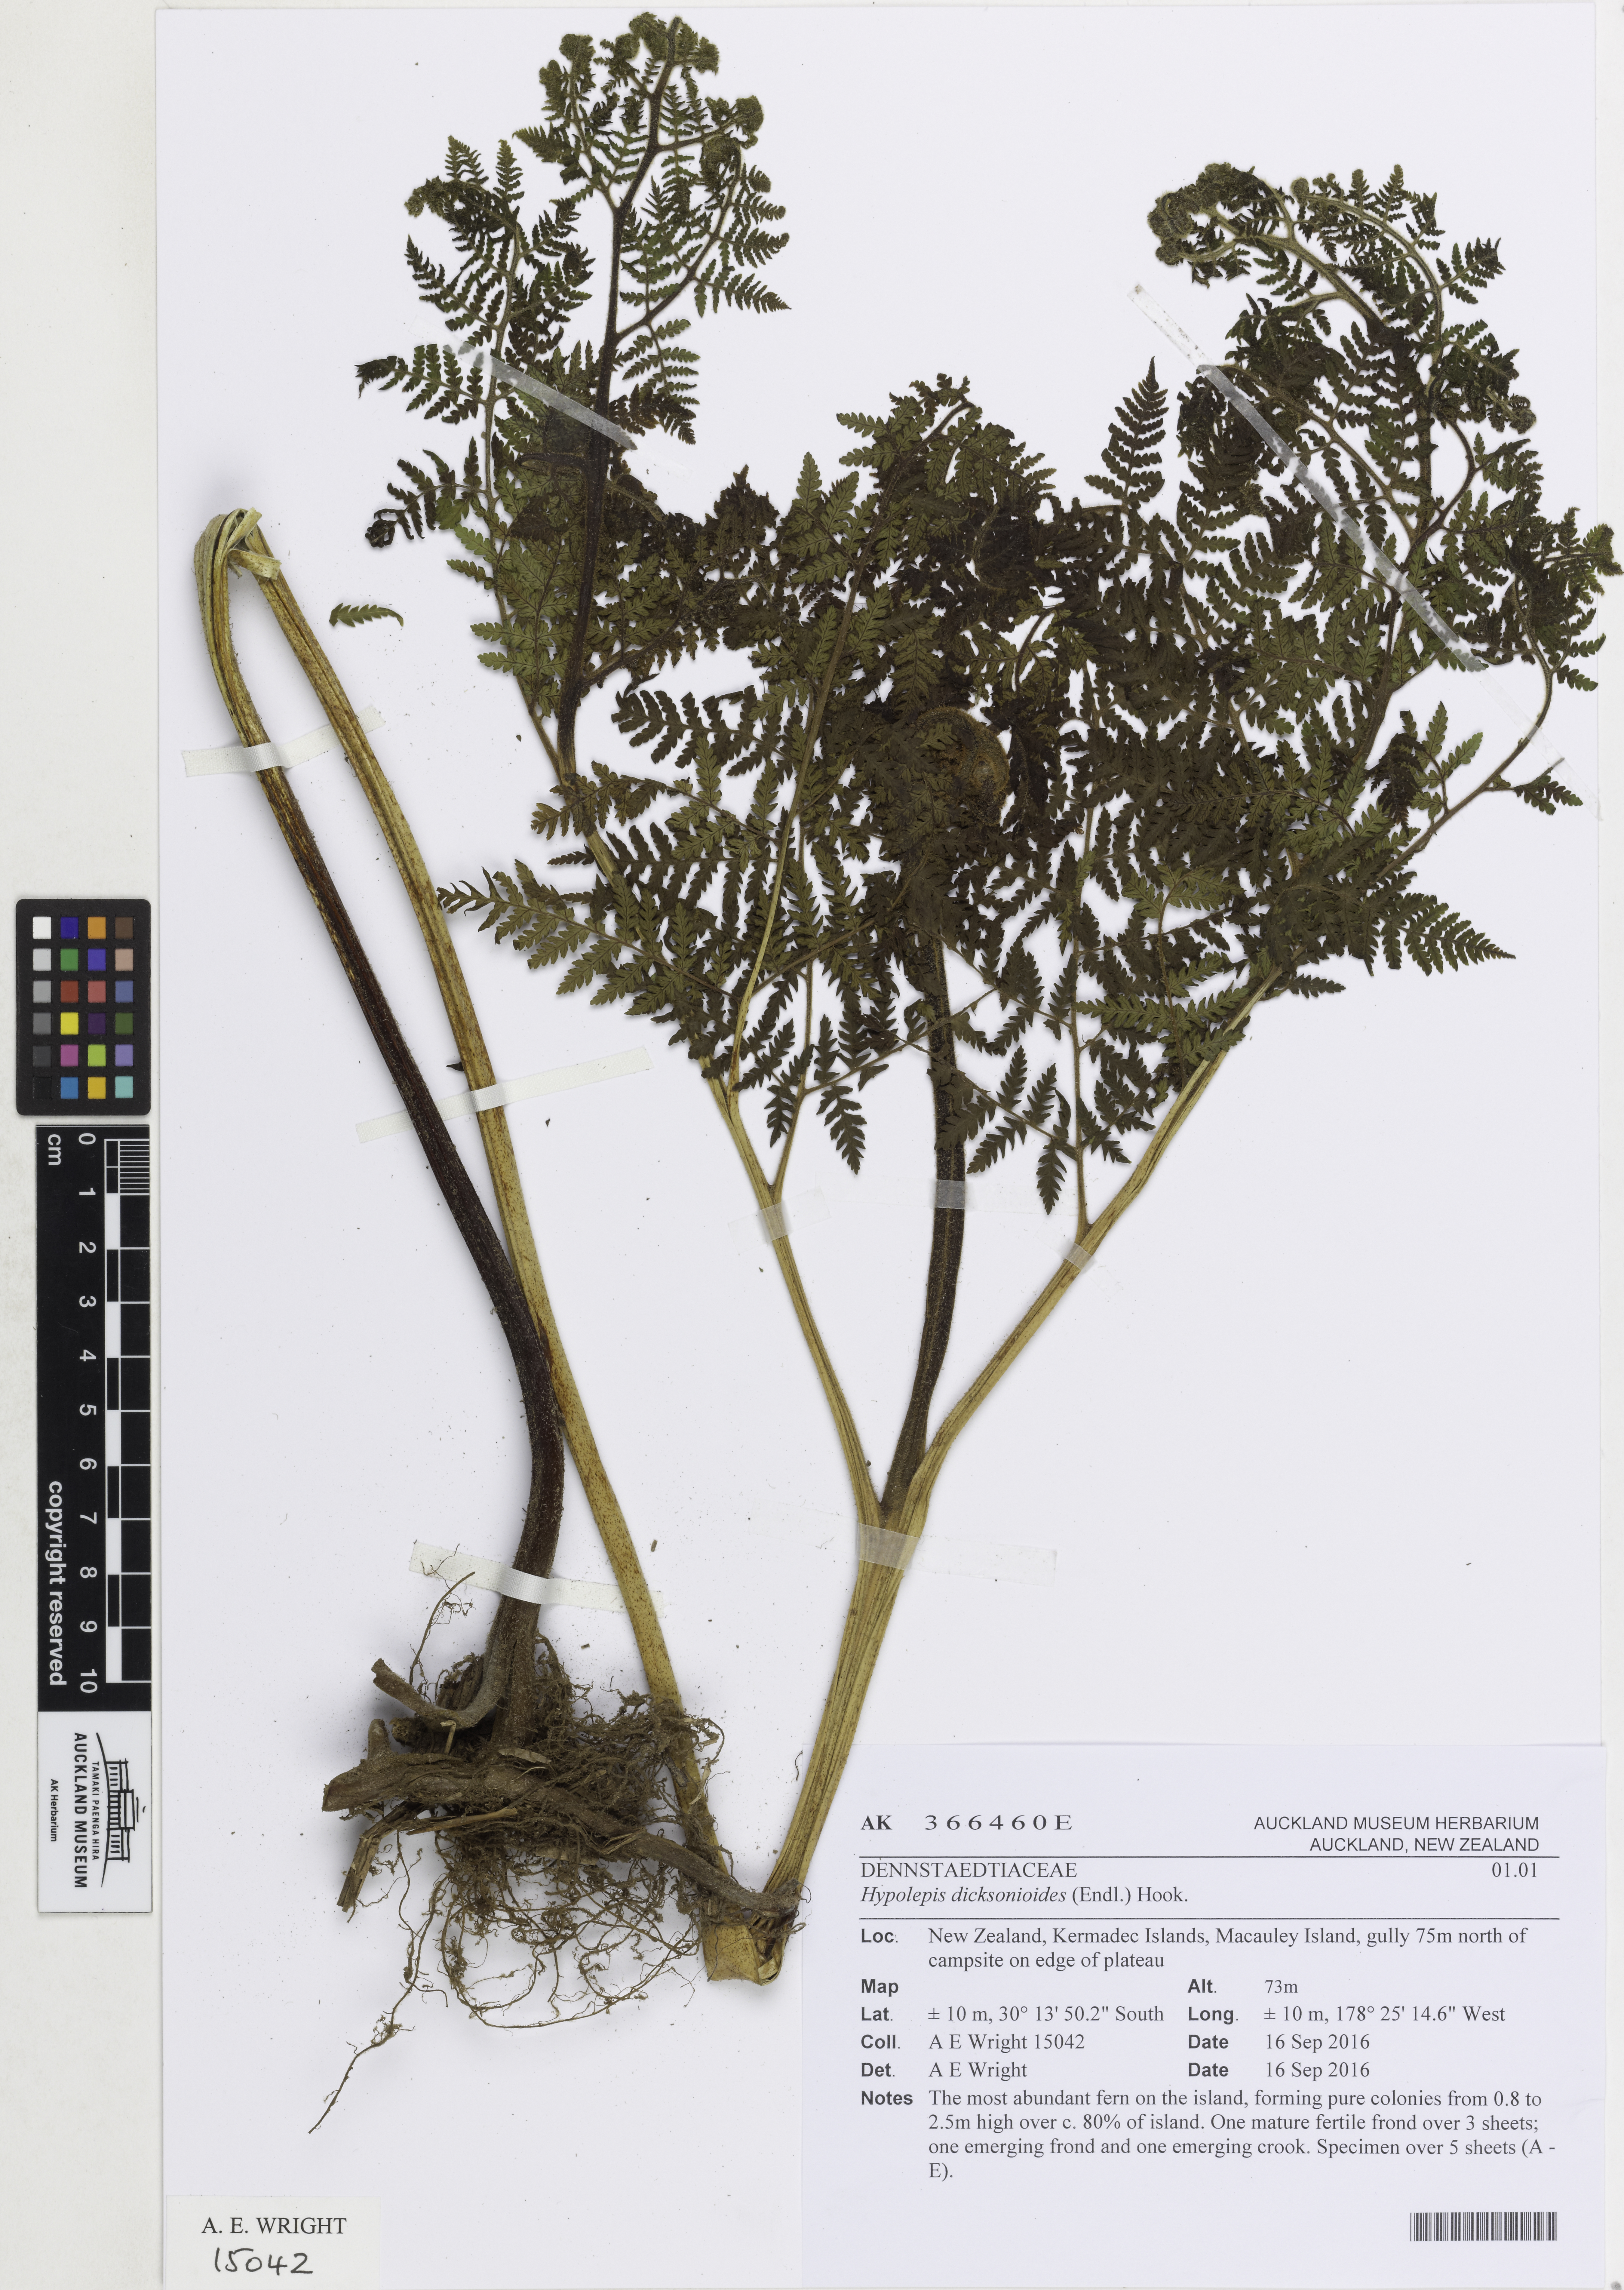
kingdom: Plantae
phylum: Tracheophyta
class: Polypodiopsida
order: Polypodiales
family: Dennstaedtiaceae
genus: Hypolepis
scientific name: Hypolepis dicksonioides
